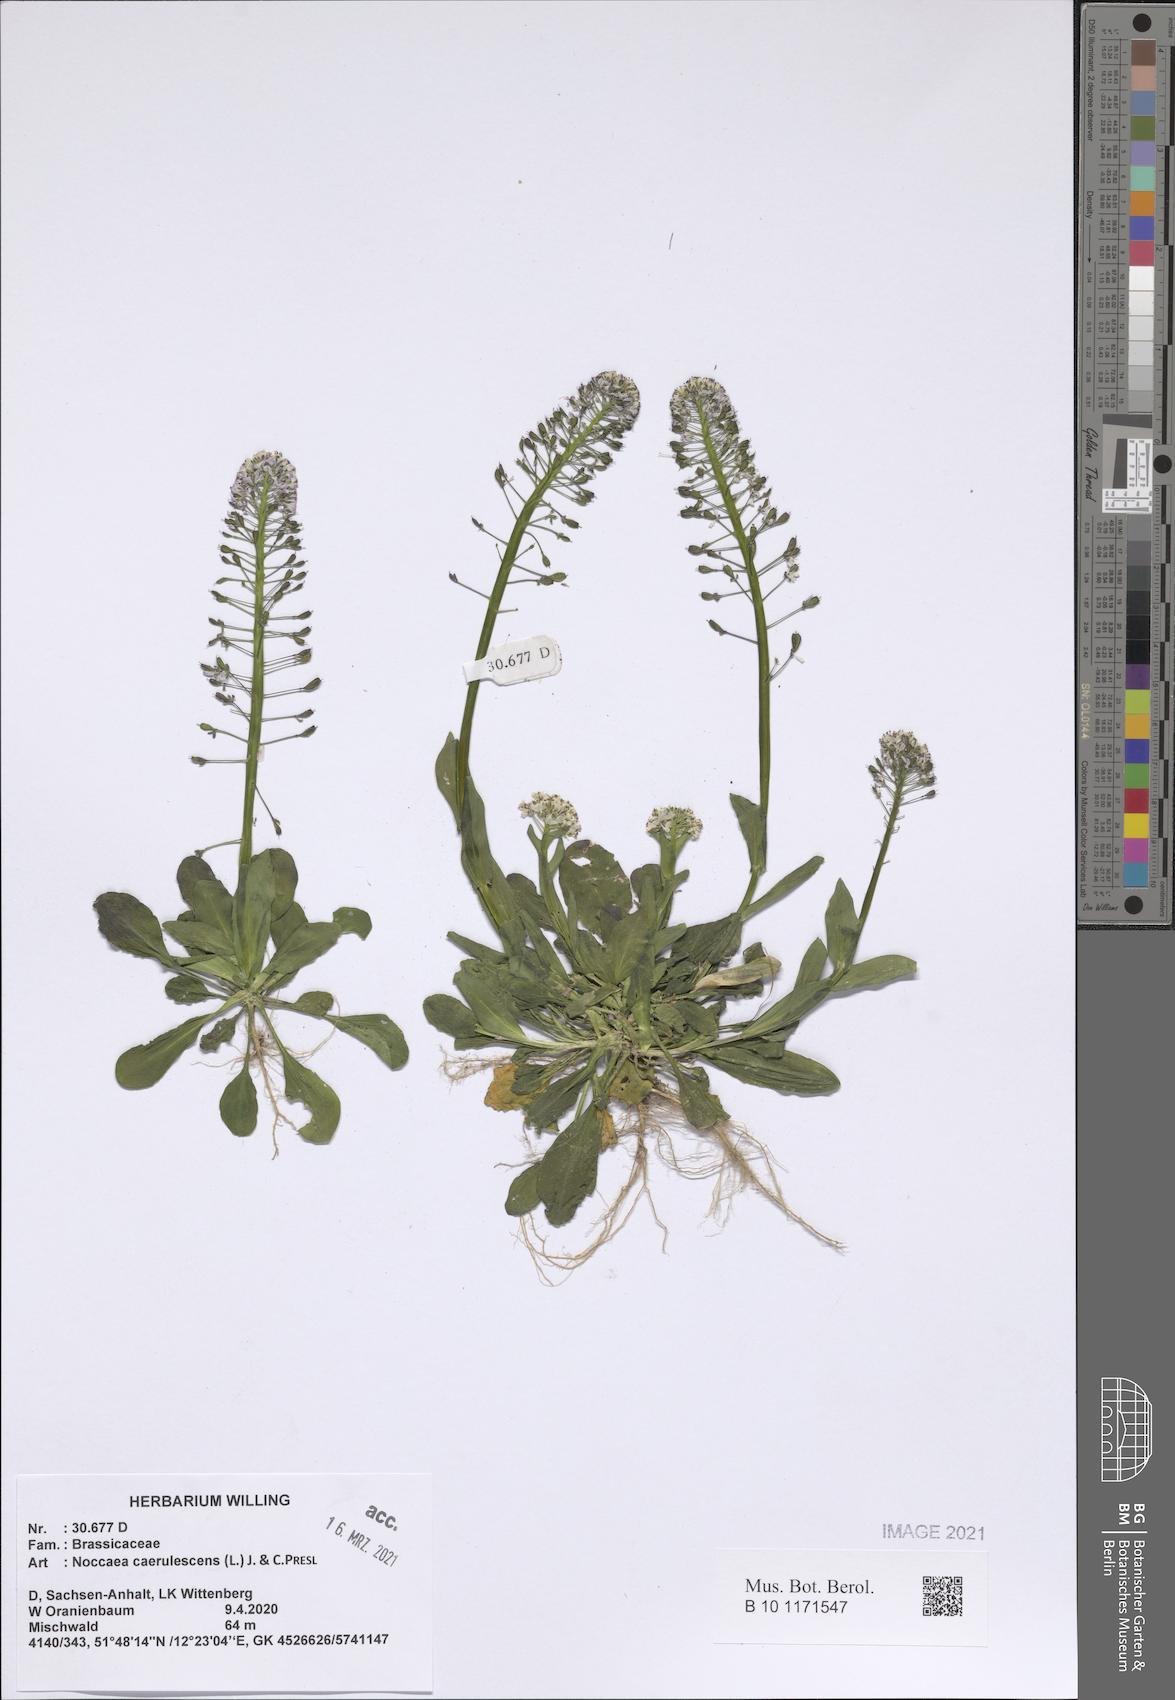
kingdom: Plantae
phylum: Tracheophyta
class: Magnoliopsida
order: Brassicales
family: Brassicaceae
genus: Noccaea
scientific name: Noccaea caerulescens
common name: Alpine pennycress
